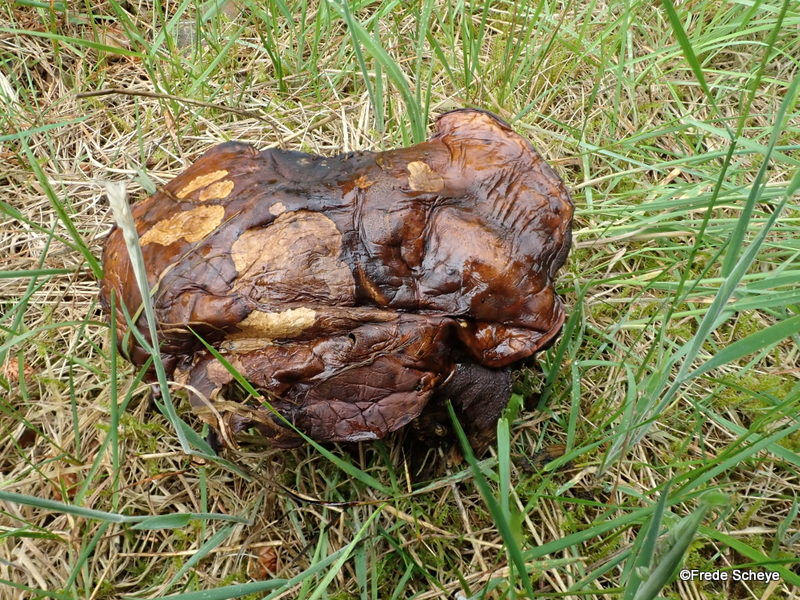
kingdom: Fungi
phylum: Basidiomycota
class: Agaricomycetes
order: Boletales
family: Boletaceae
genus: Neoboletus
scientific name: Neoboletus erythropus
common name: punktstokket indigorørhat
